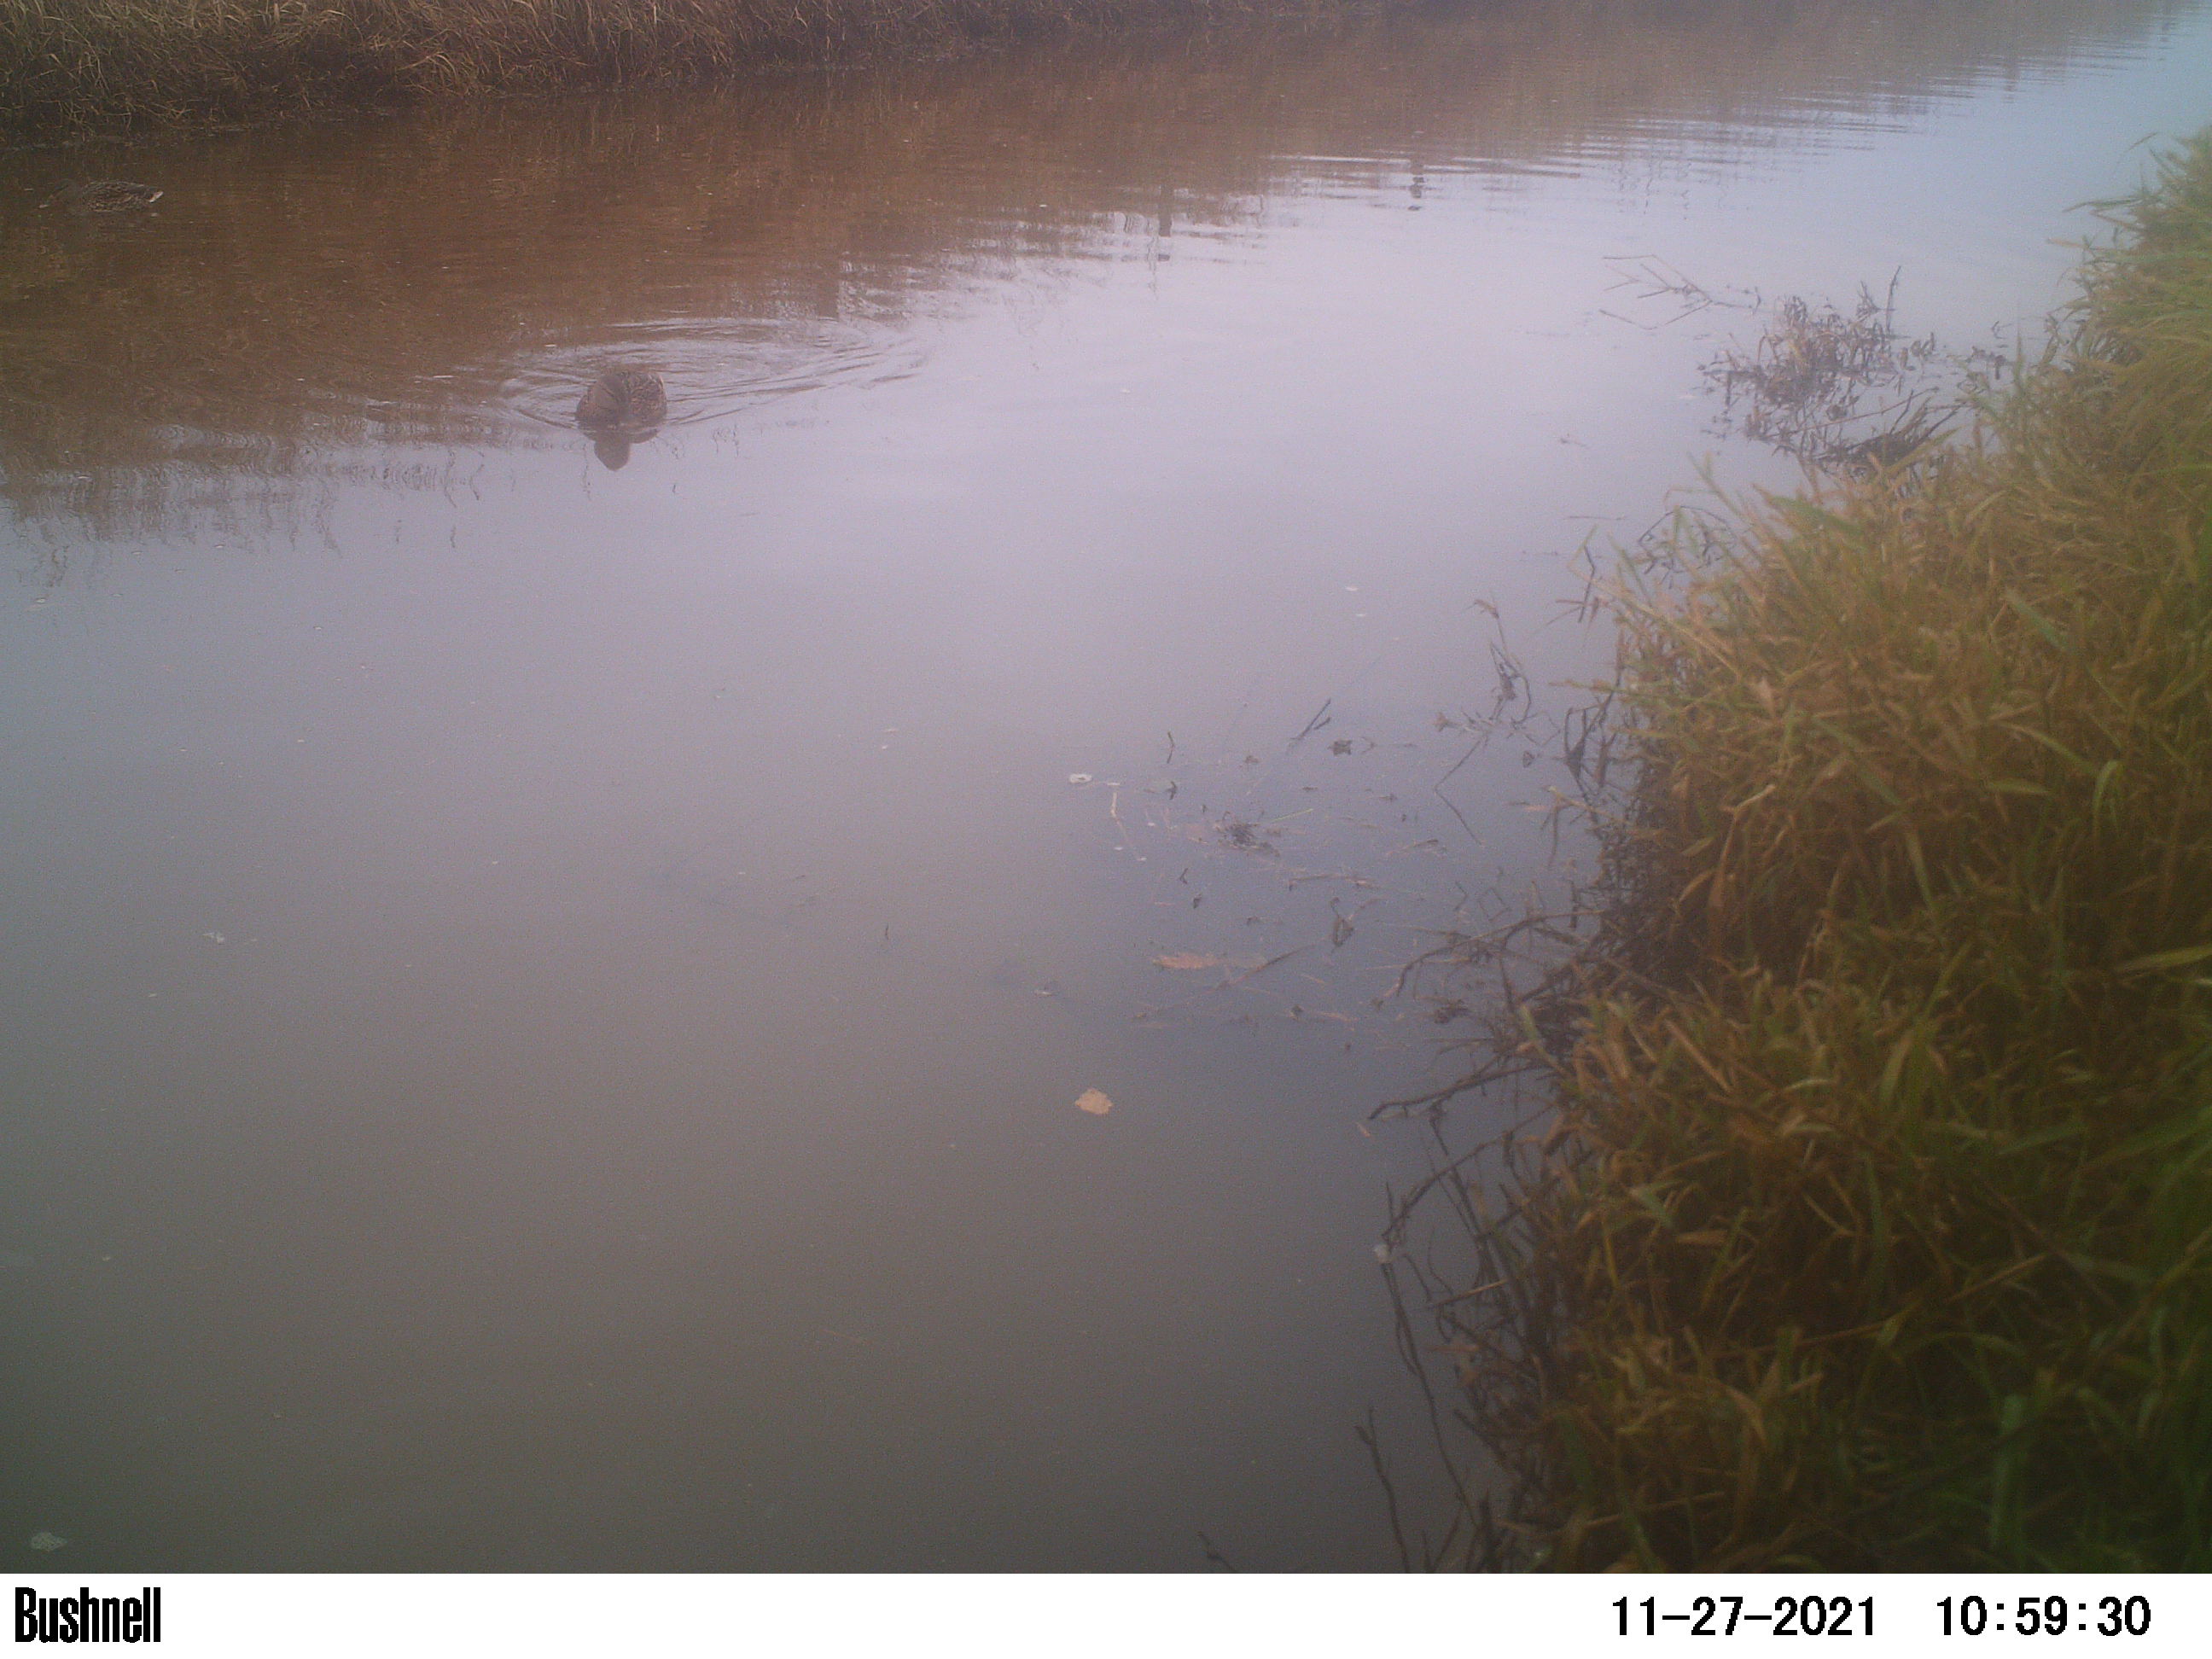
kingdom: Animalia
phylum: Chordata
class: Aves
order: Anseriformes
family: Anatidae
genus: Anas
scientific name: Anas
